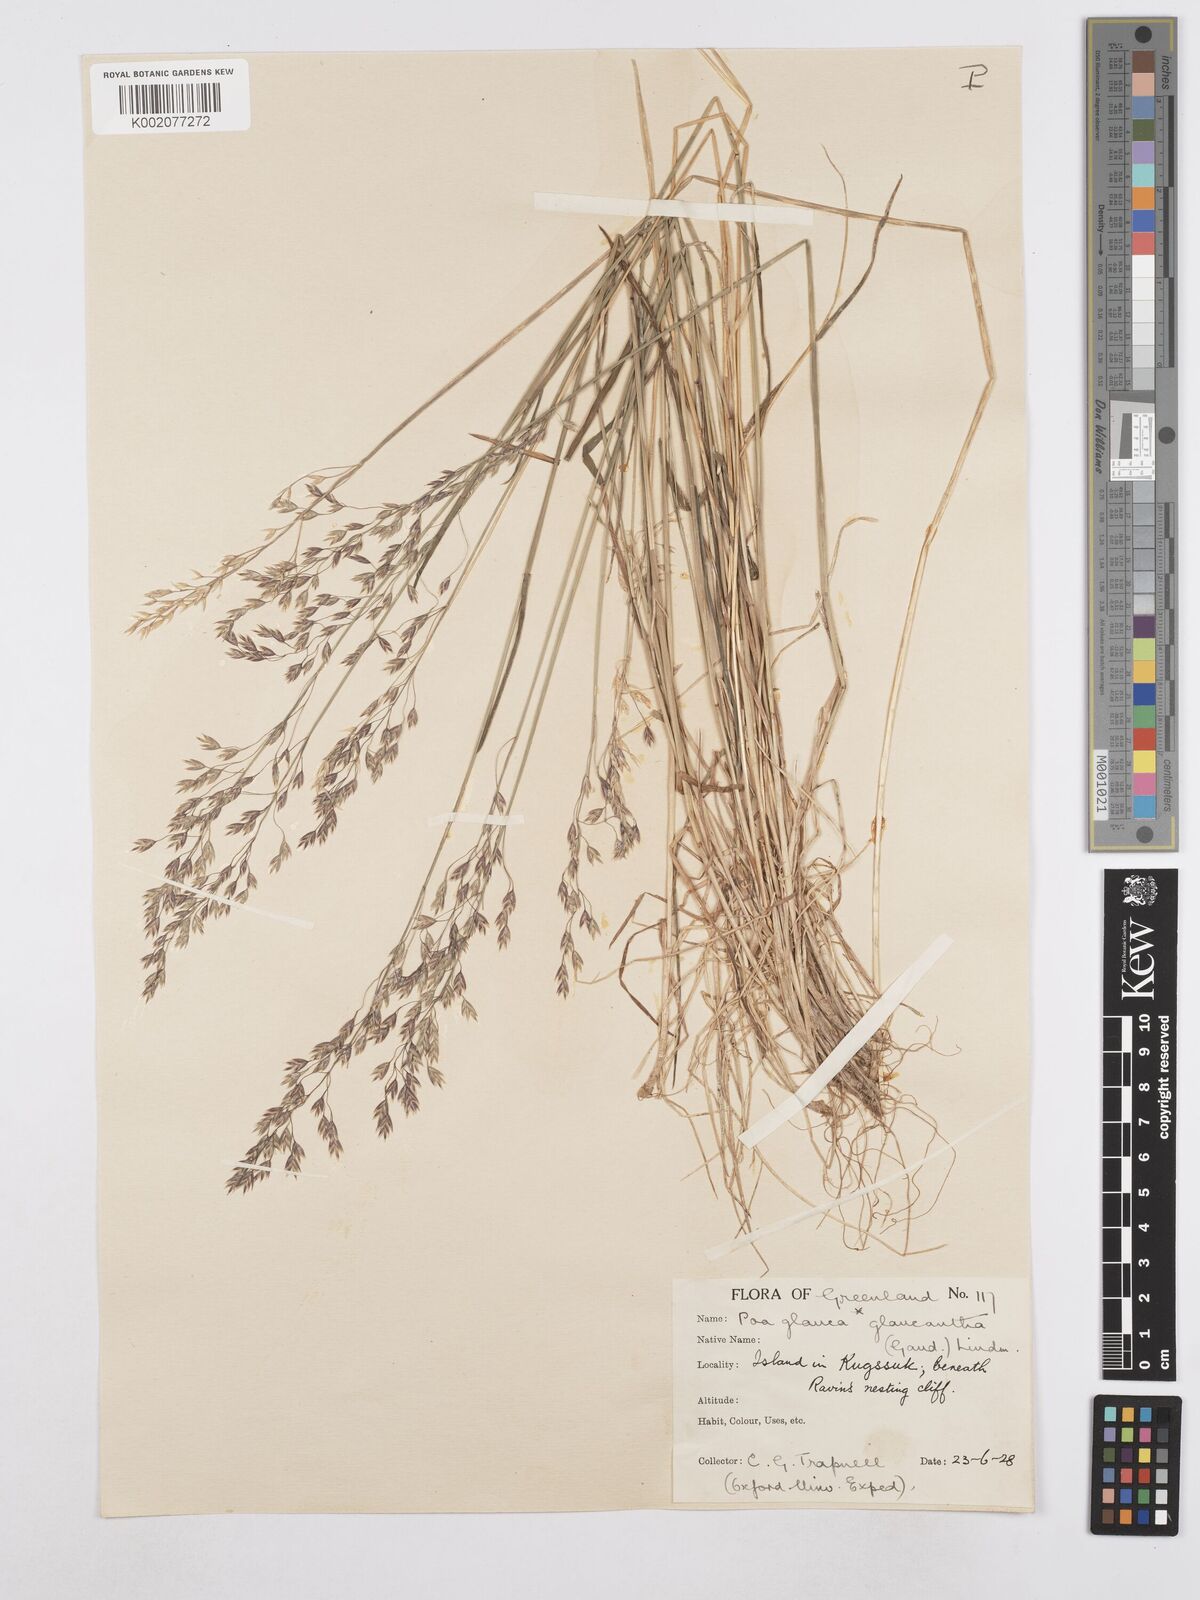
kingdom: Plantae
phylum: Tracheophyta
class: Liliopsida
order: Poales
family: Poaceae
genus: Poa
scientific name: Poa glauca
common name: Glaucous bluegrass
